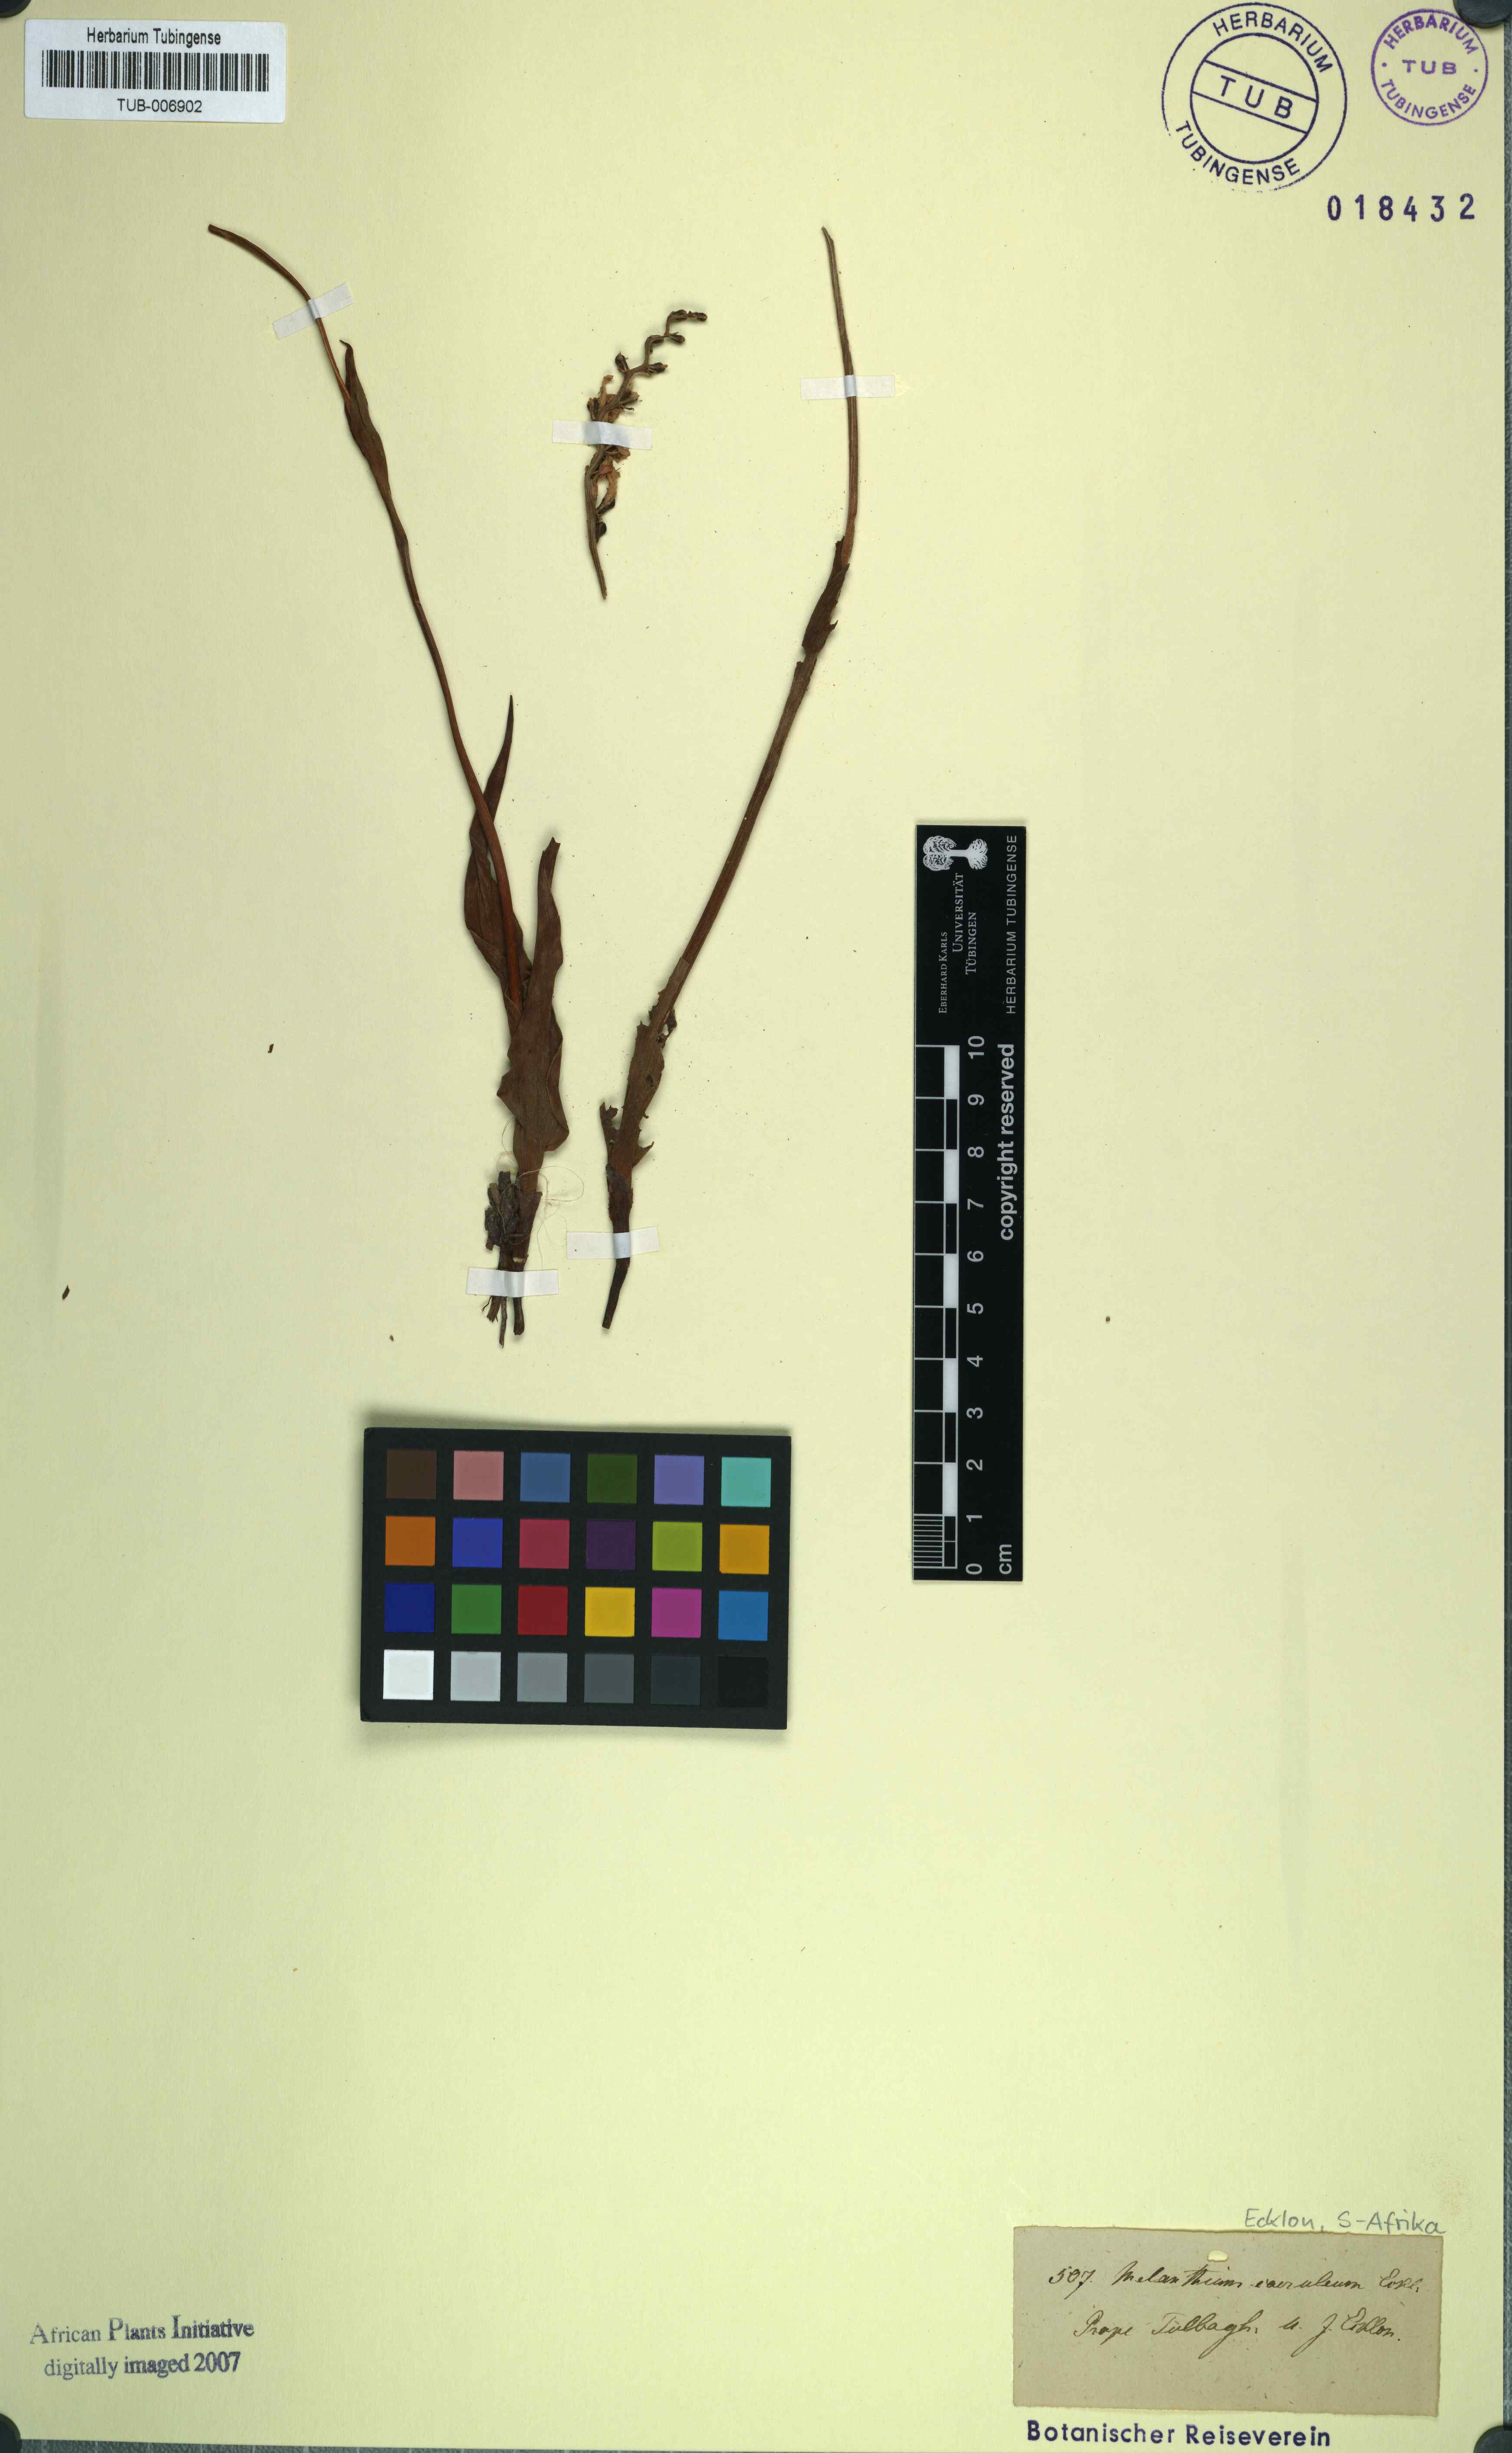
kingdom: Plantae
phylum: Tracheophyta
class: Liliopsida
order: Liliales
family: Colchicaceae
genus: Wurmbea
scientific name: Wurmbea punctata
